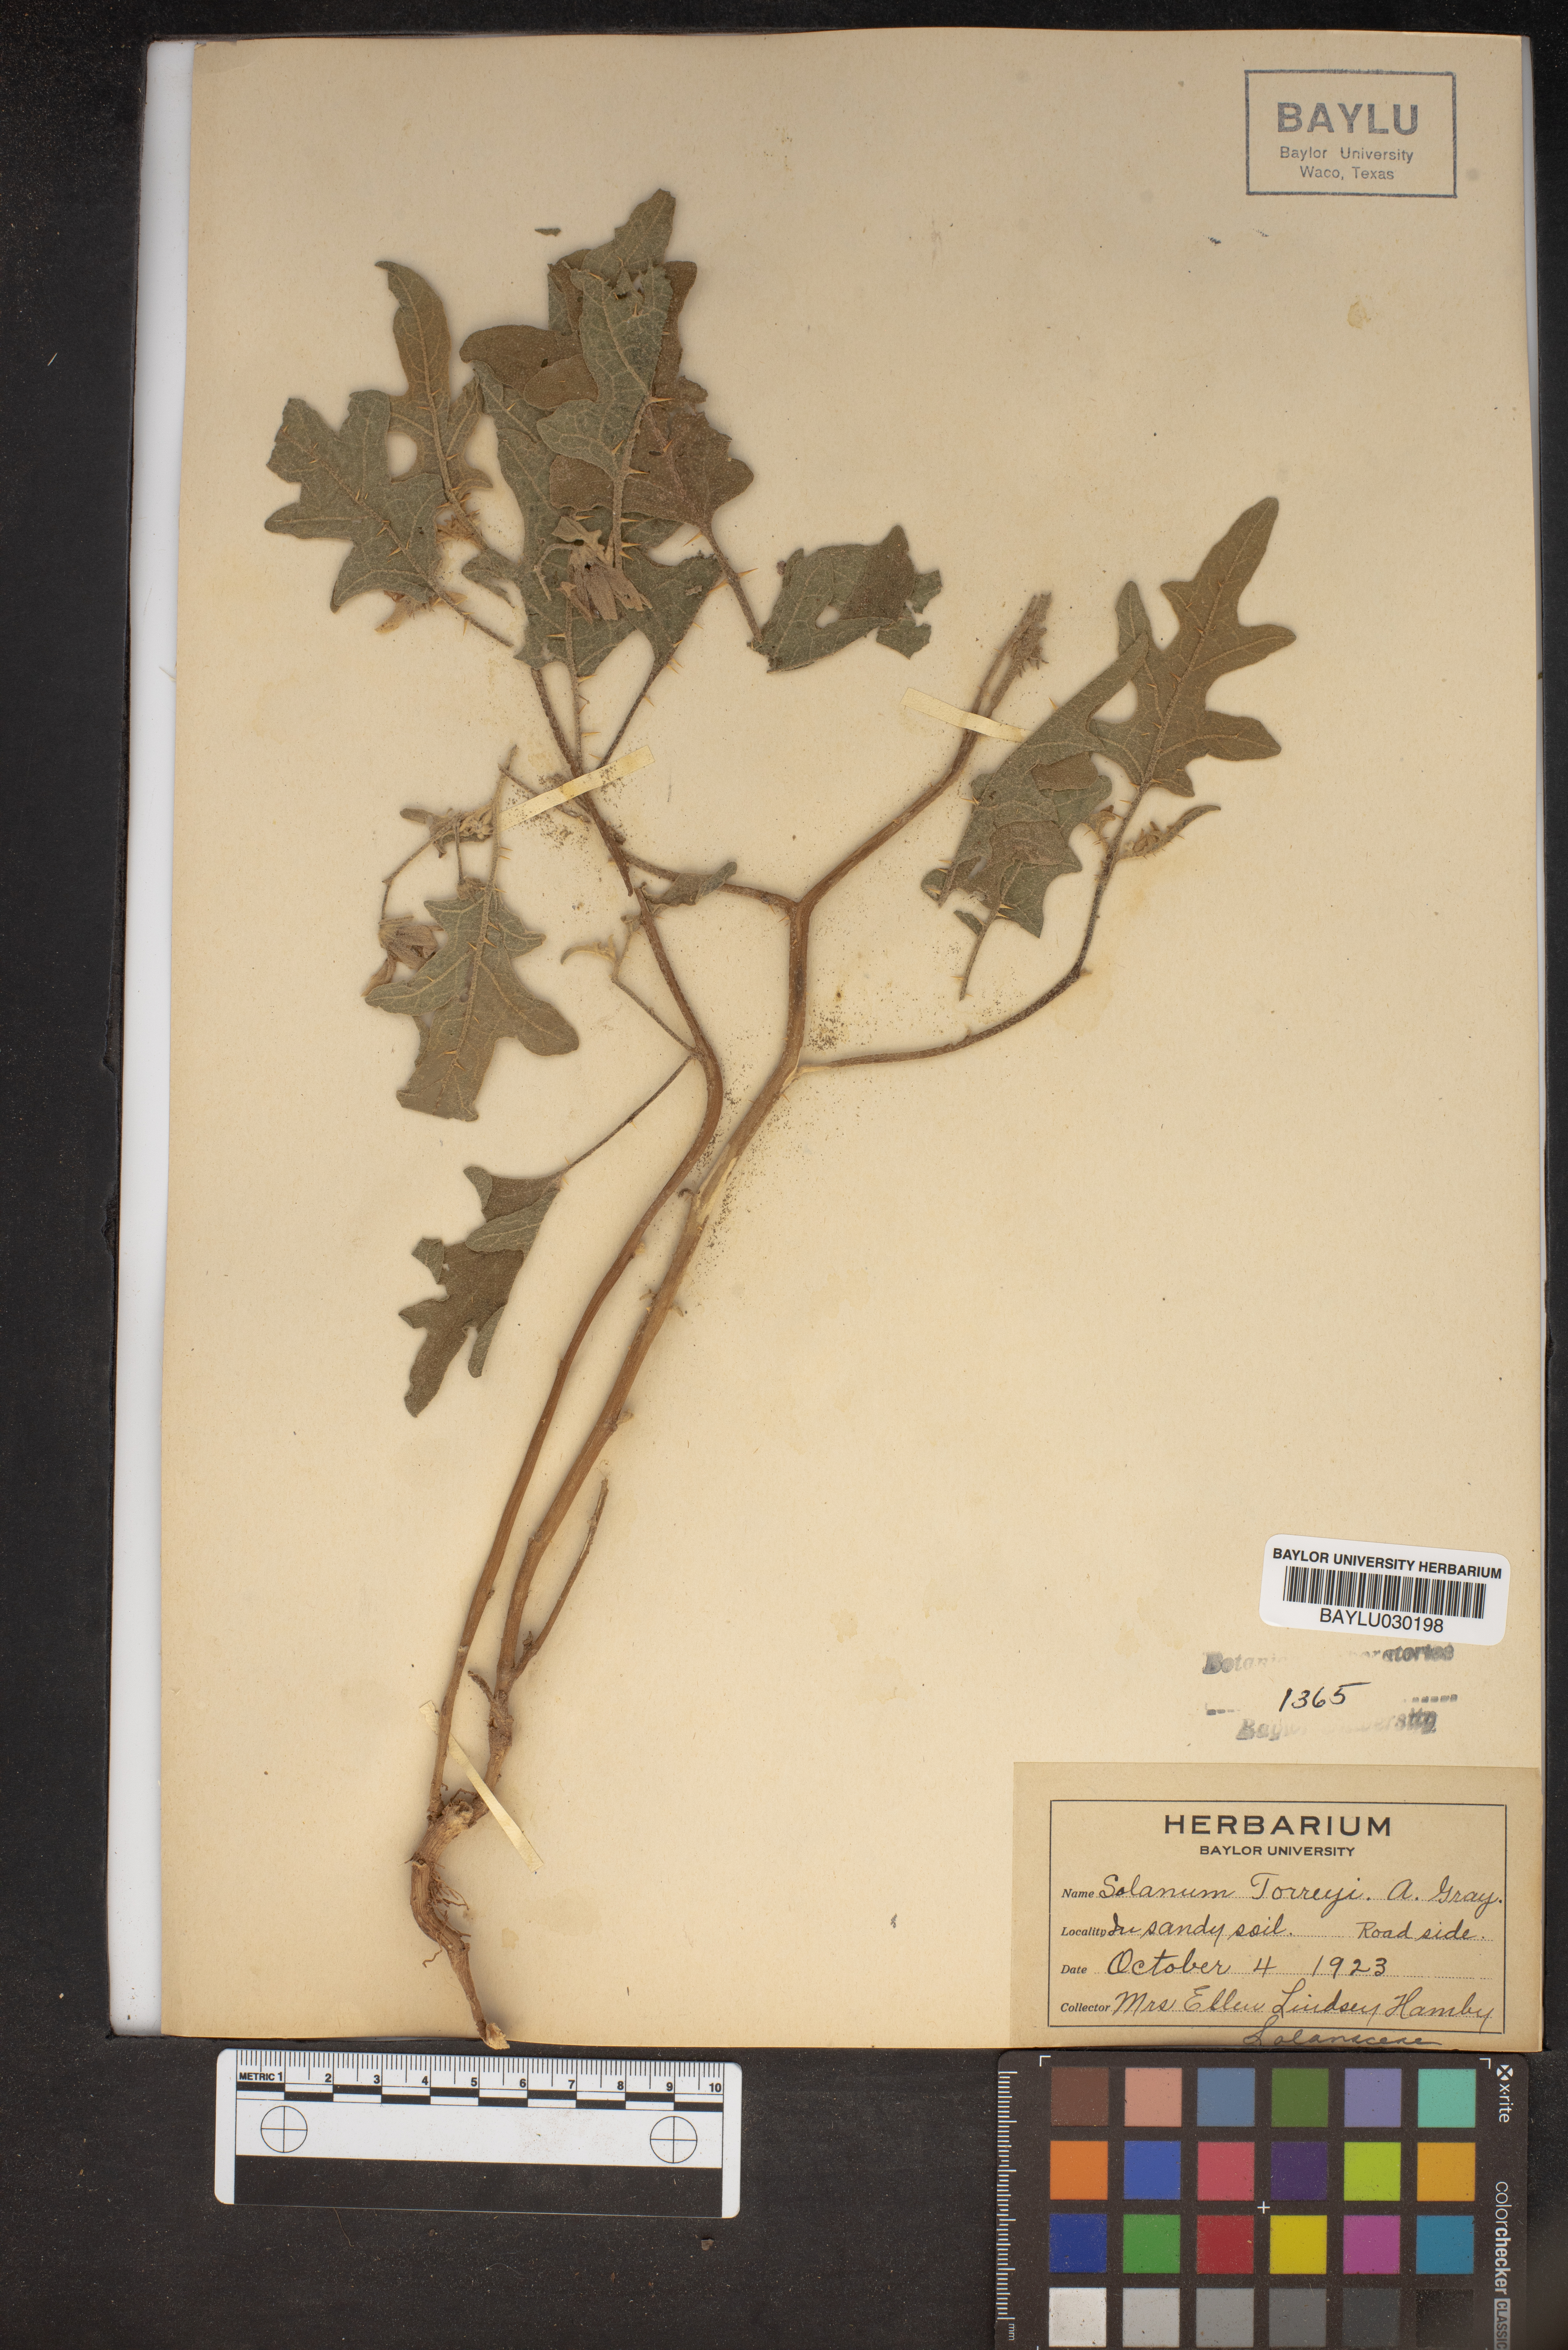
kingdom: Plantae
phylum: Tracheophyta
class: Magnoliopsida
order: Solanales
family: Solanaceae
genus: Solanum
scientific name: Solanum dimidiatum
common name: Carolina horse-nettle
